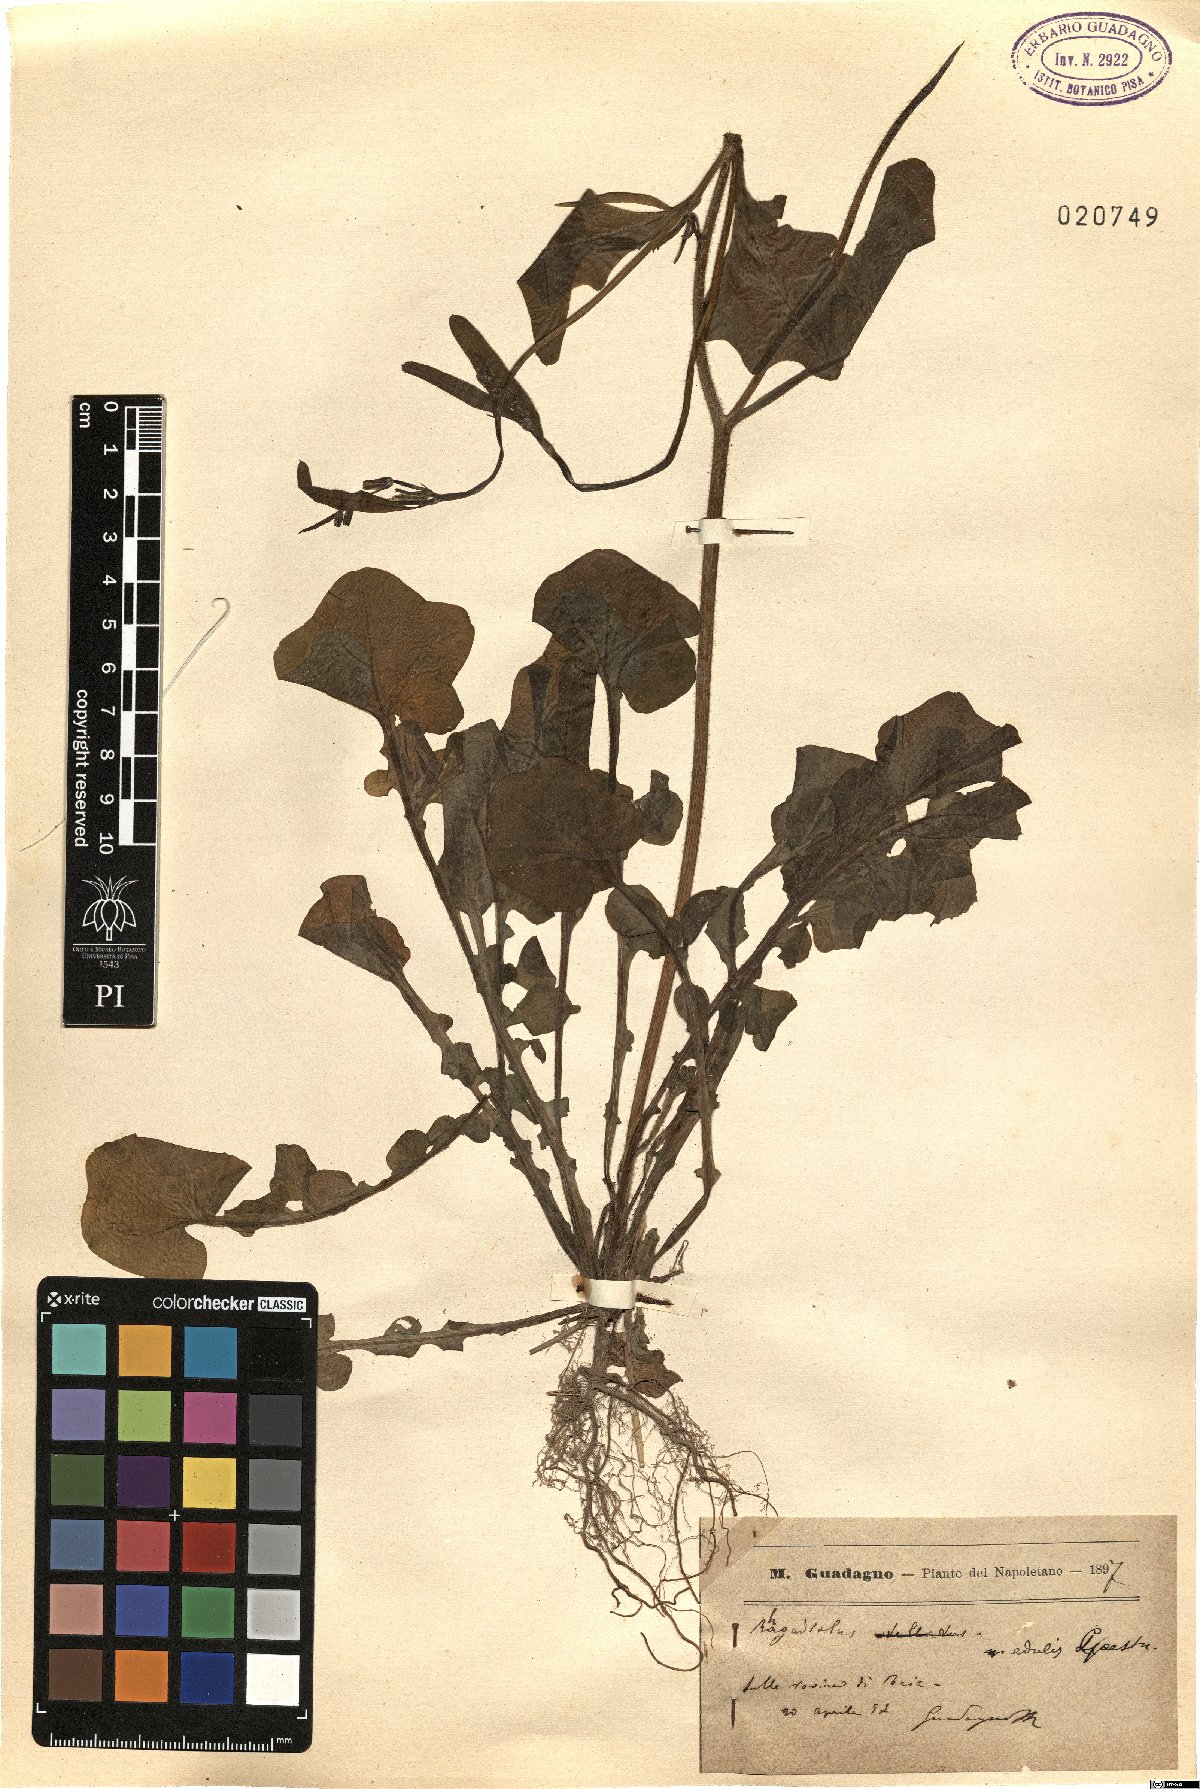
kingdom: Plantae
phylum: Tracheophyta
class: Magnoliopsida
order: Asterales
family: Asteraceae
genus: Rhagadiolus
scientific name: Rhagadiolus edulis
